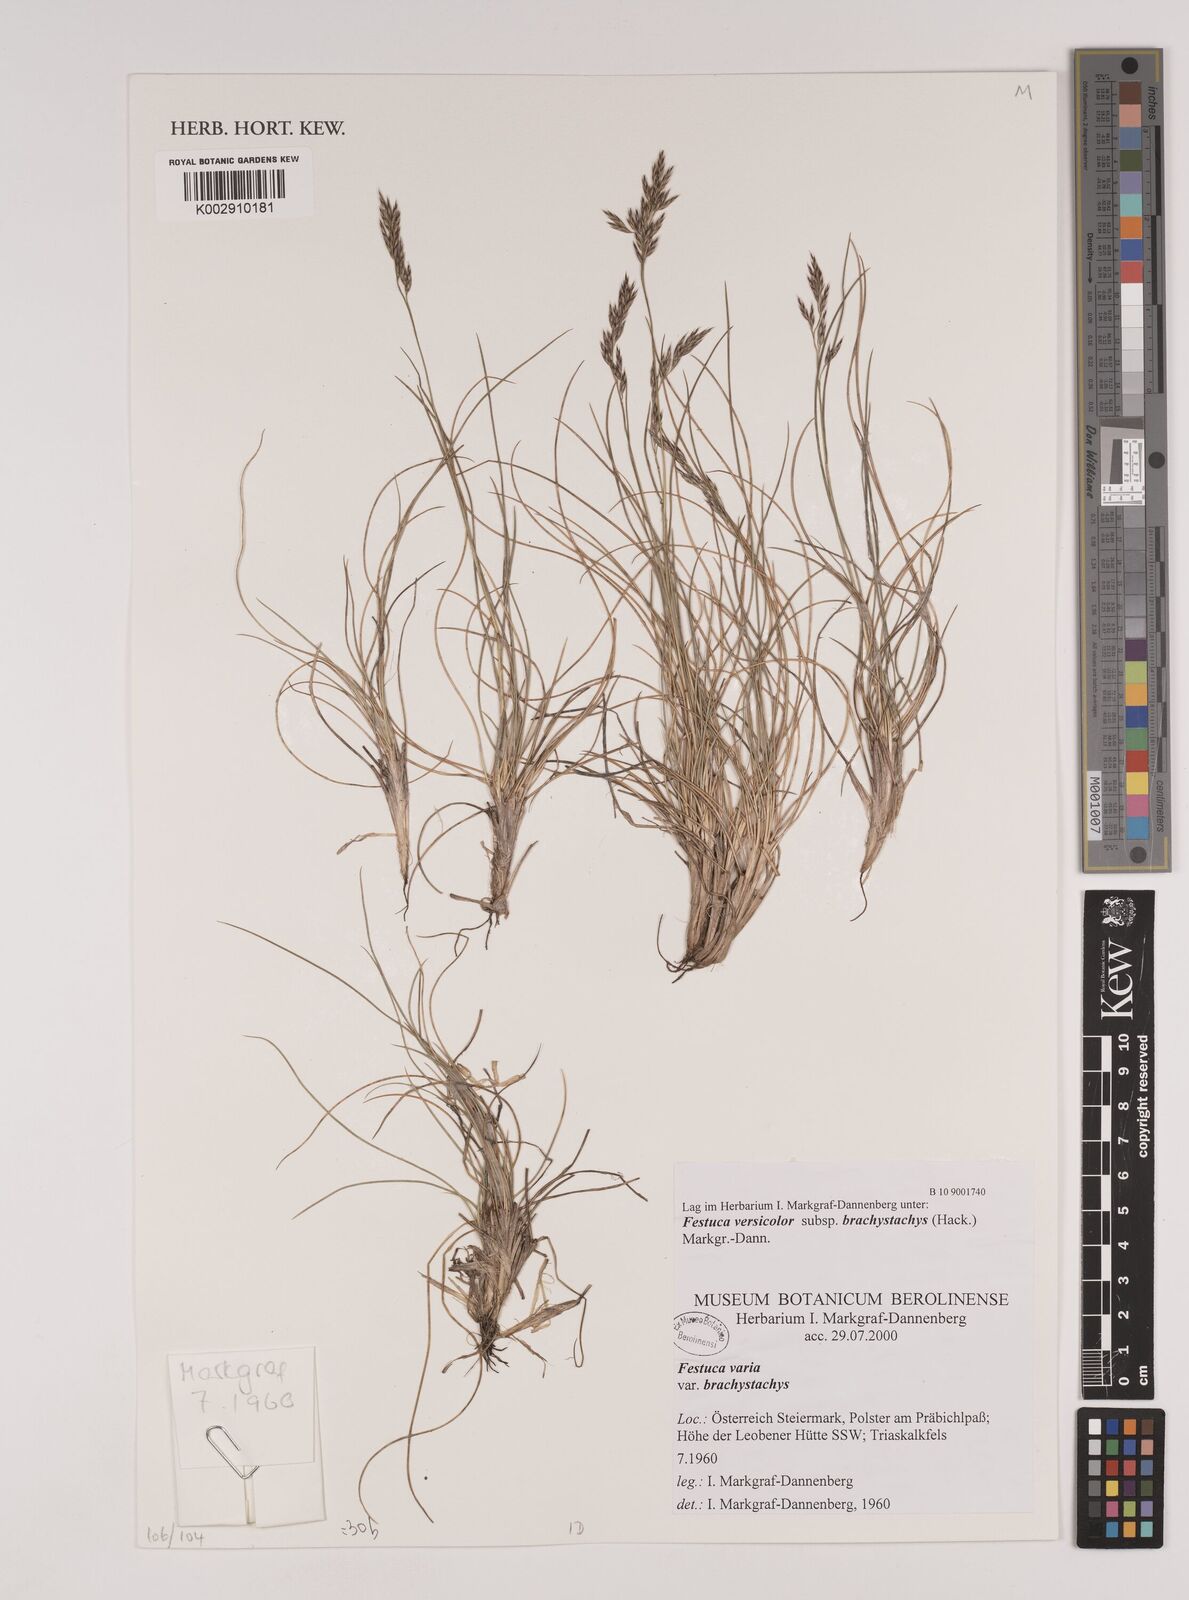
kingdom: Plantae
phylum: Tracheophyta
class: Liliopsida
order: Poales
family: Poaceae
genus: Festuca
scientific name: Festuca varia
